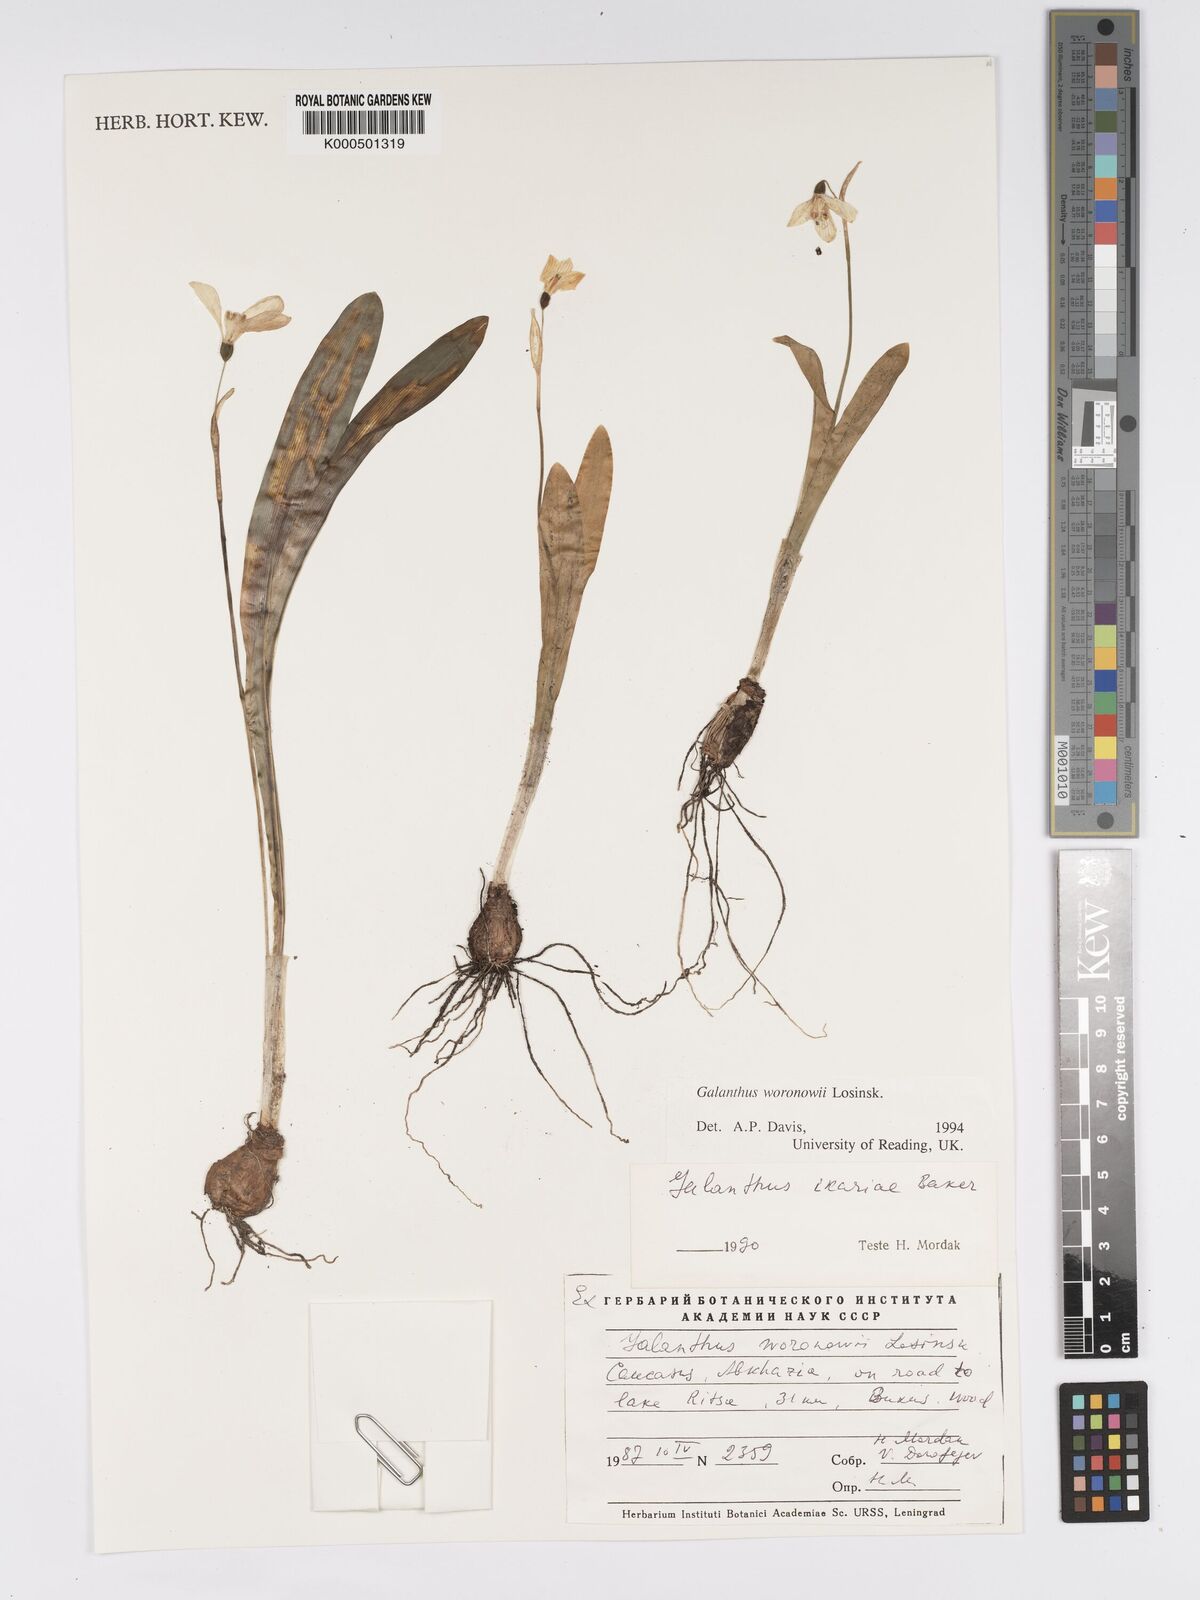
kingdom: Plantae
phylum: Tracheophyta
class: Liliopsida
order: Asparagales
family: Amaryllidaceae
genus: Galanthus
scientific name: Galanthus woronowii
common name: Green snowdrop
